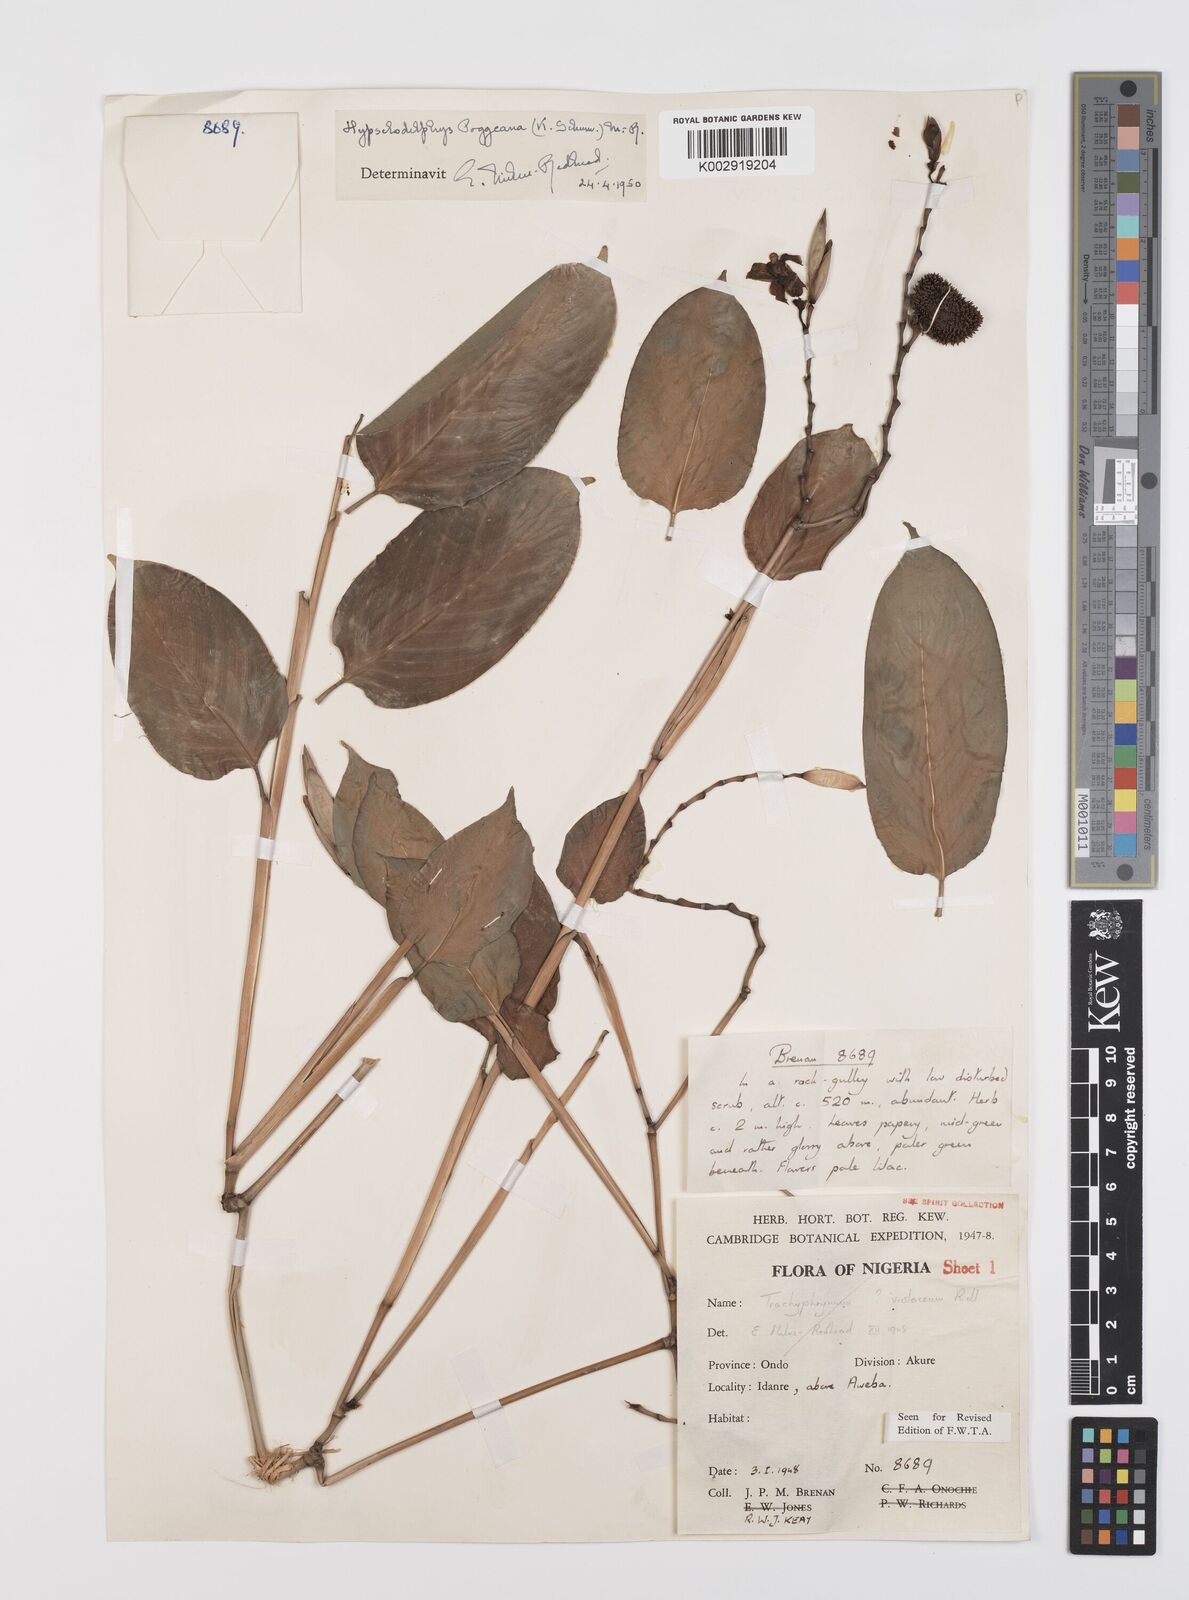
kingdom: Plantae
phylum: Tracheophyta
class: Liliopsida
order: Zingiberales
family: Marantaceae
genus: Hypselodelphys
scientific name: Hypselodelphys poggeana
